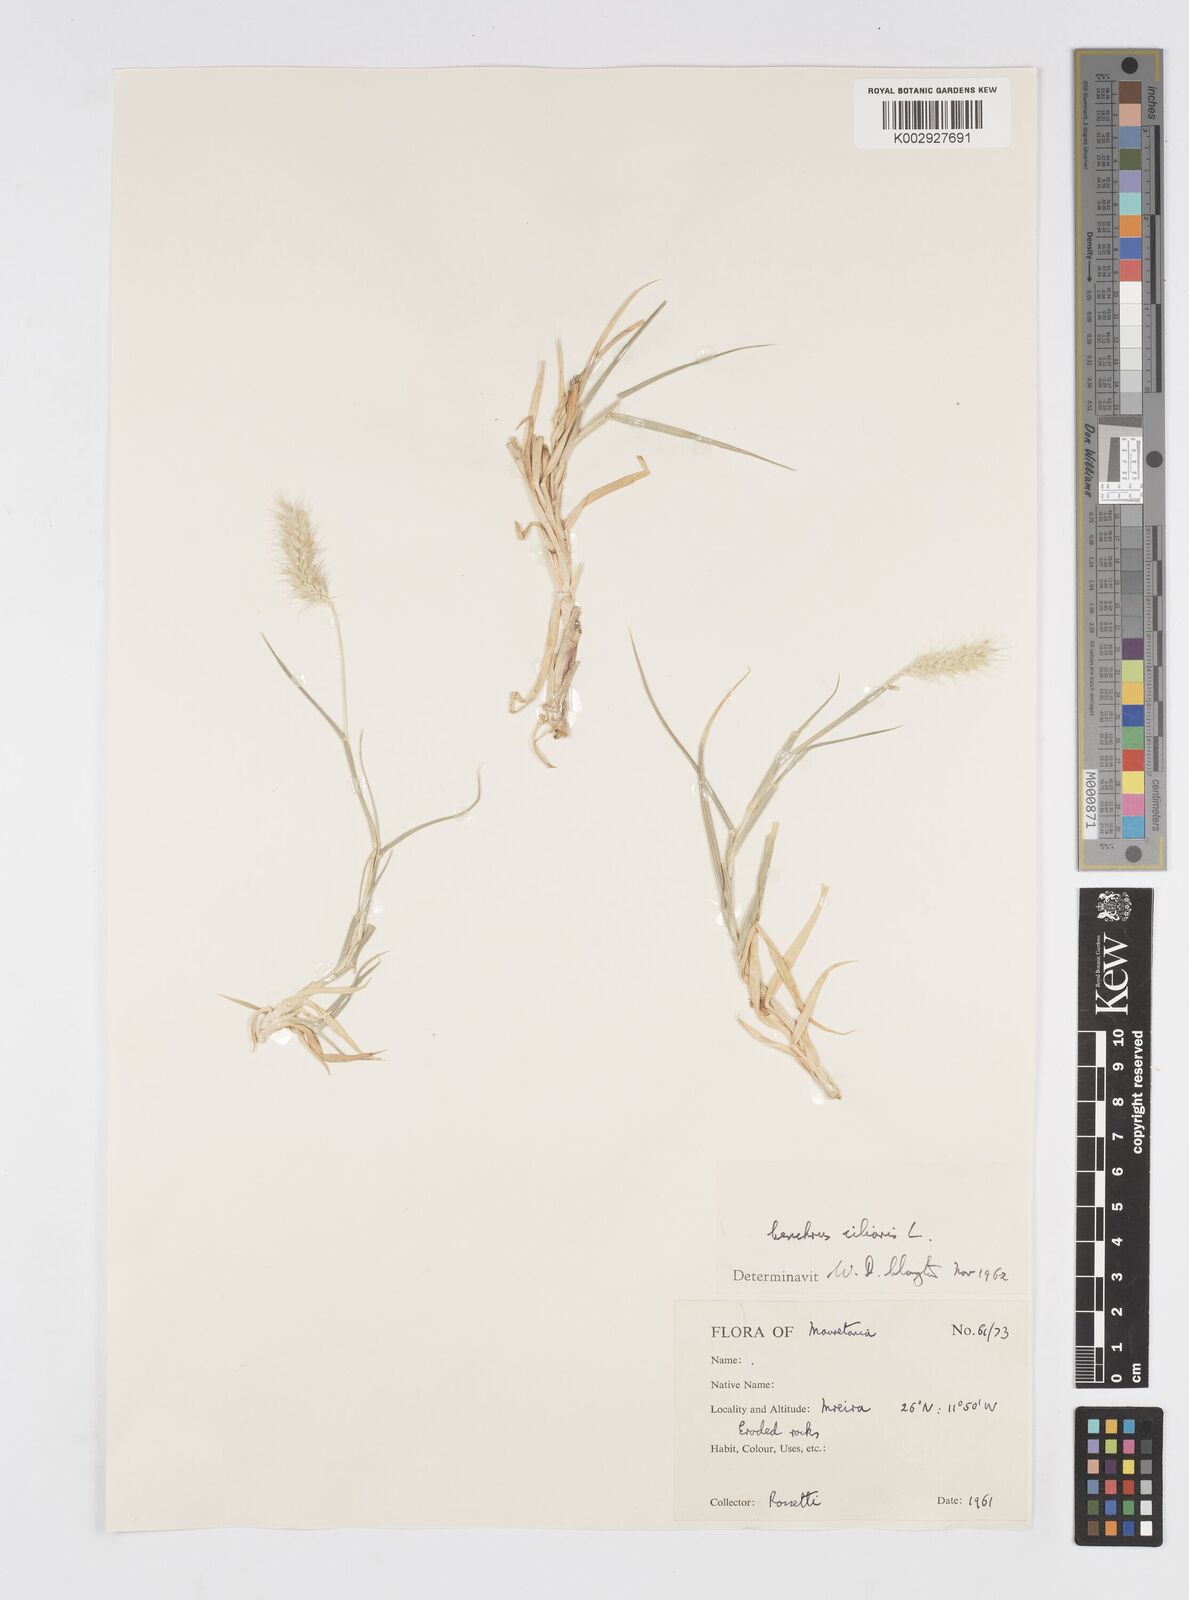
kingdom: Plantae
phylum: Tracheophyta
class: Liliopsida
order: Poales
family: Poaceae
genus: Cenchrus
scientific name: Cenchrus ciliaris
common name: Buffelgrass
